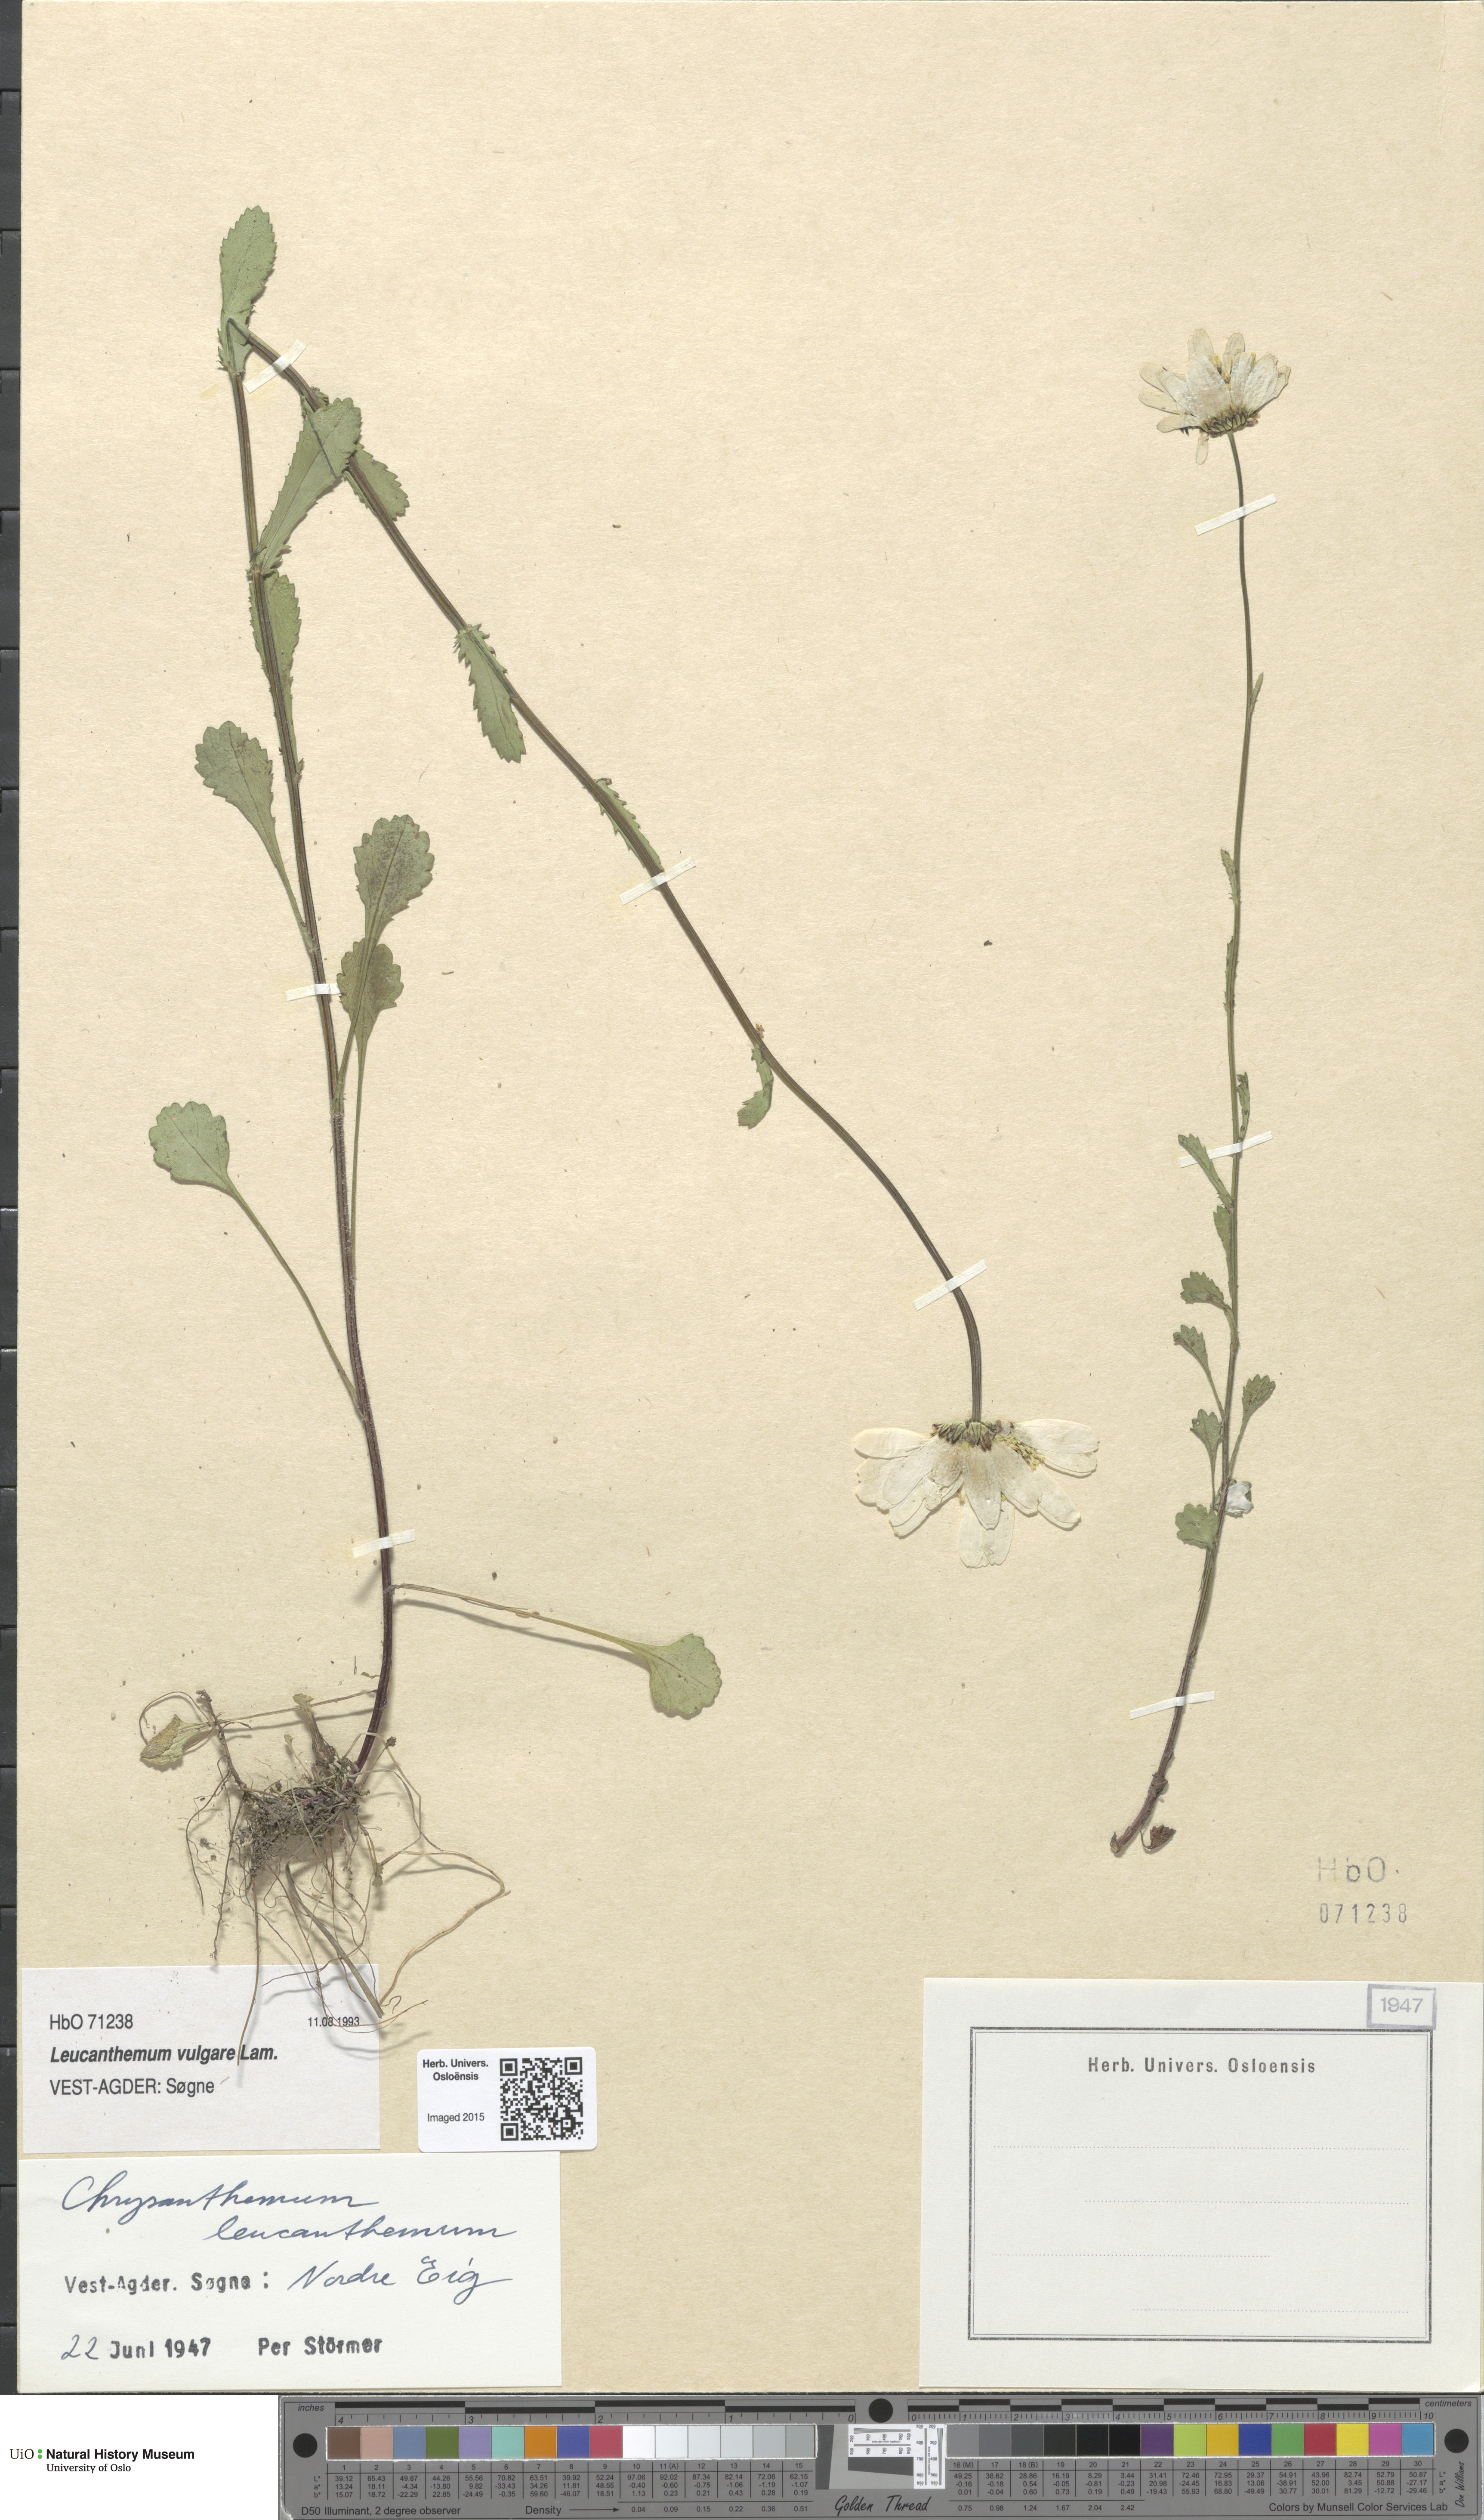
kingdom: Plantae
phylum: Tracheophyta
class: Magnoliopsida
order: Asterales
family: Asteraceae
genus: Leucanthemum
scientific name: Leucanthemum vulgare
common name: Oxeye daisy
